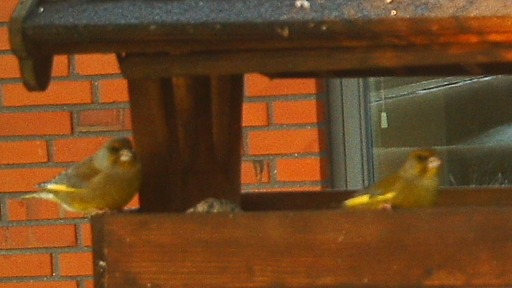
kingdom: Plantae
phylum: Tracheophyta
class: Liliopsida
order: Poales
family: Poaceae
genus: Chloris
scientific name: Chloris chloris
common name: Grønirisk
